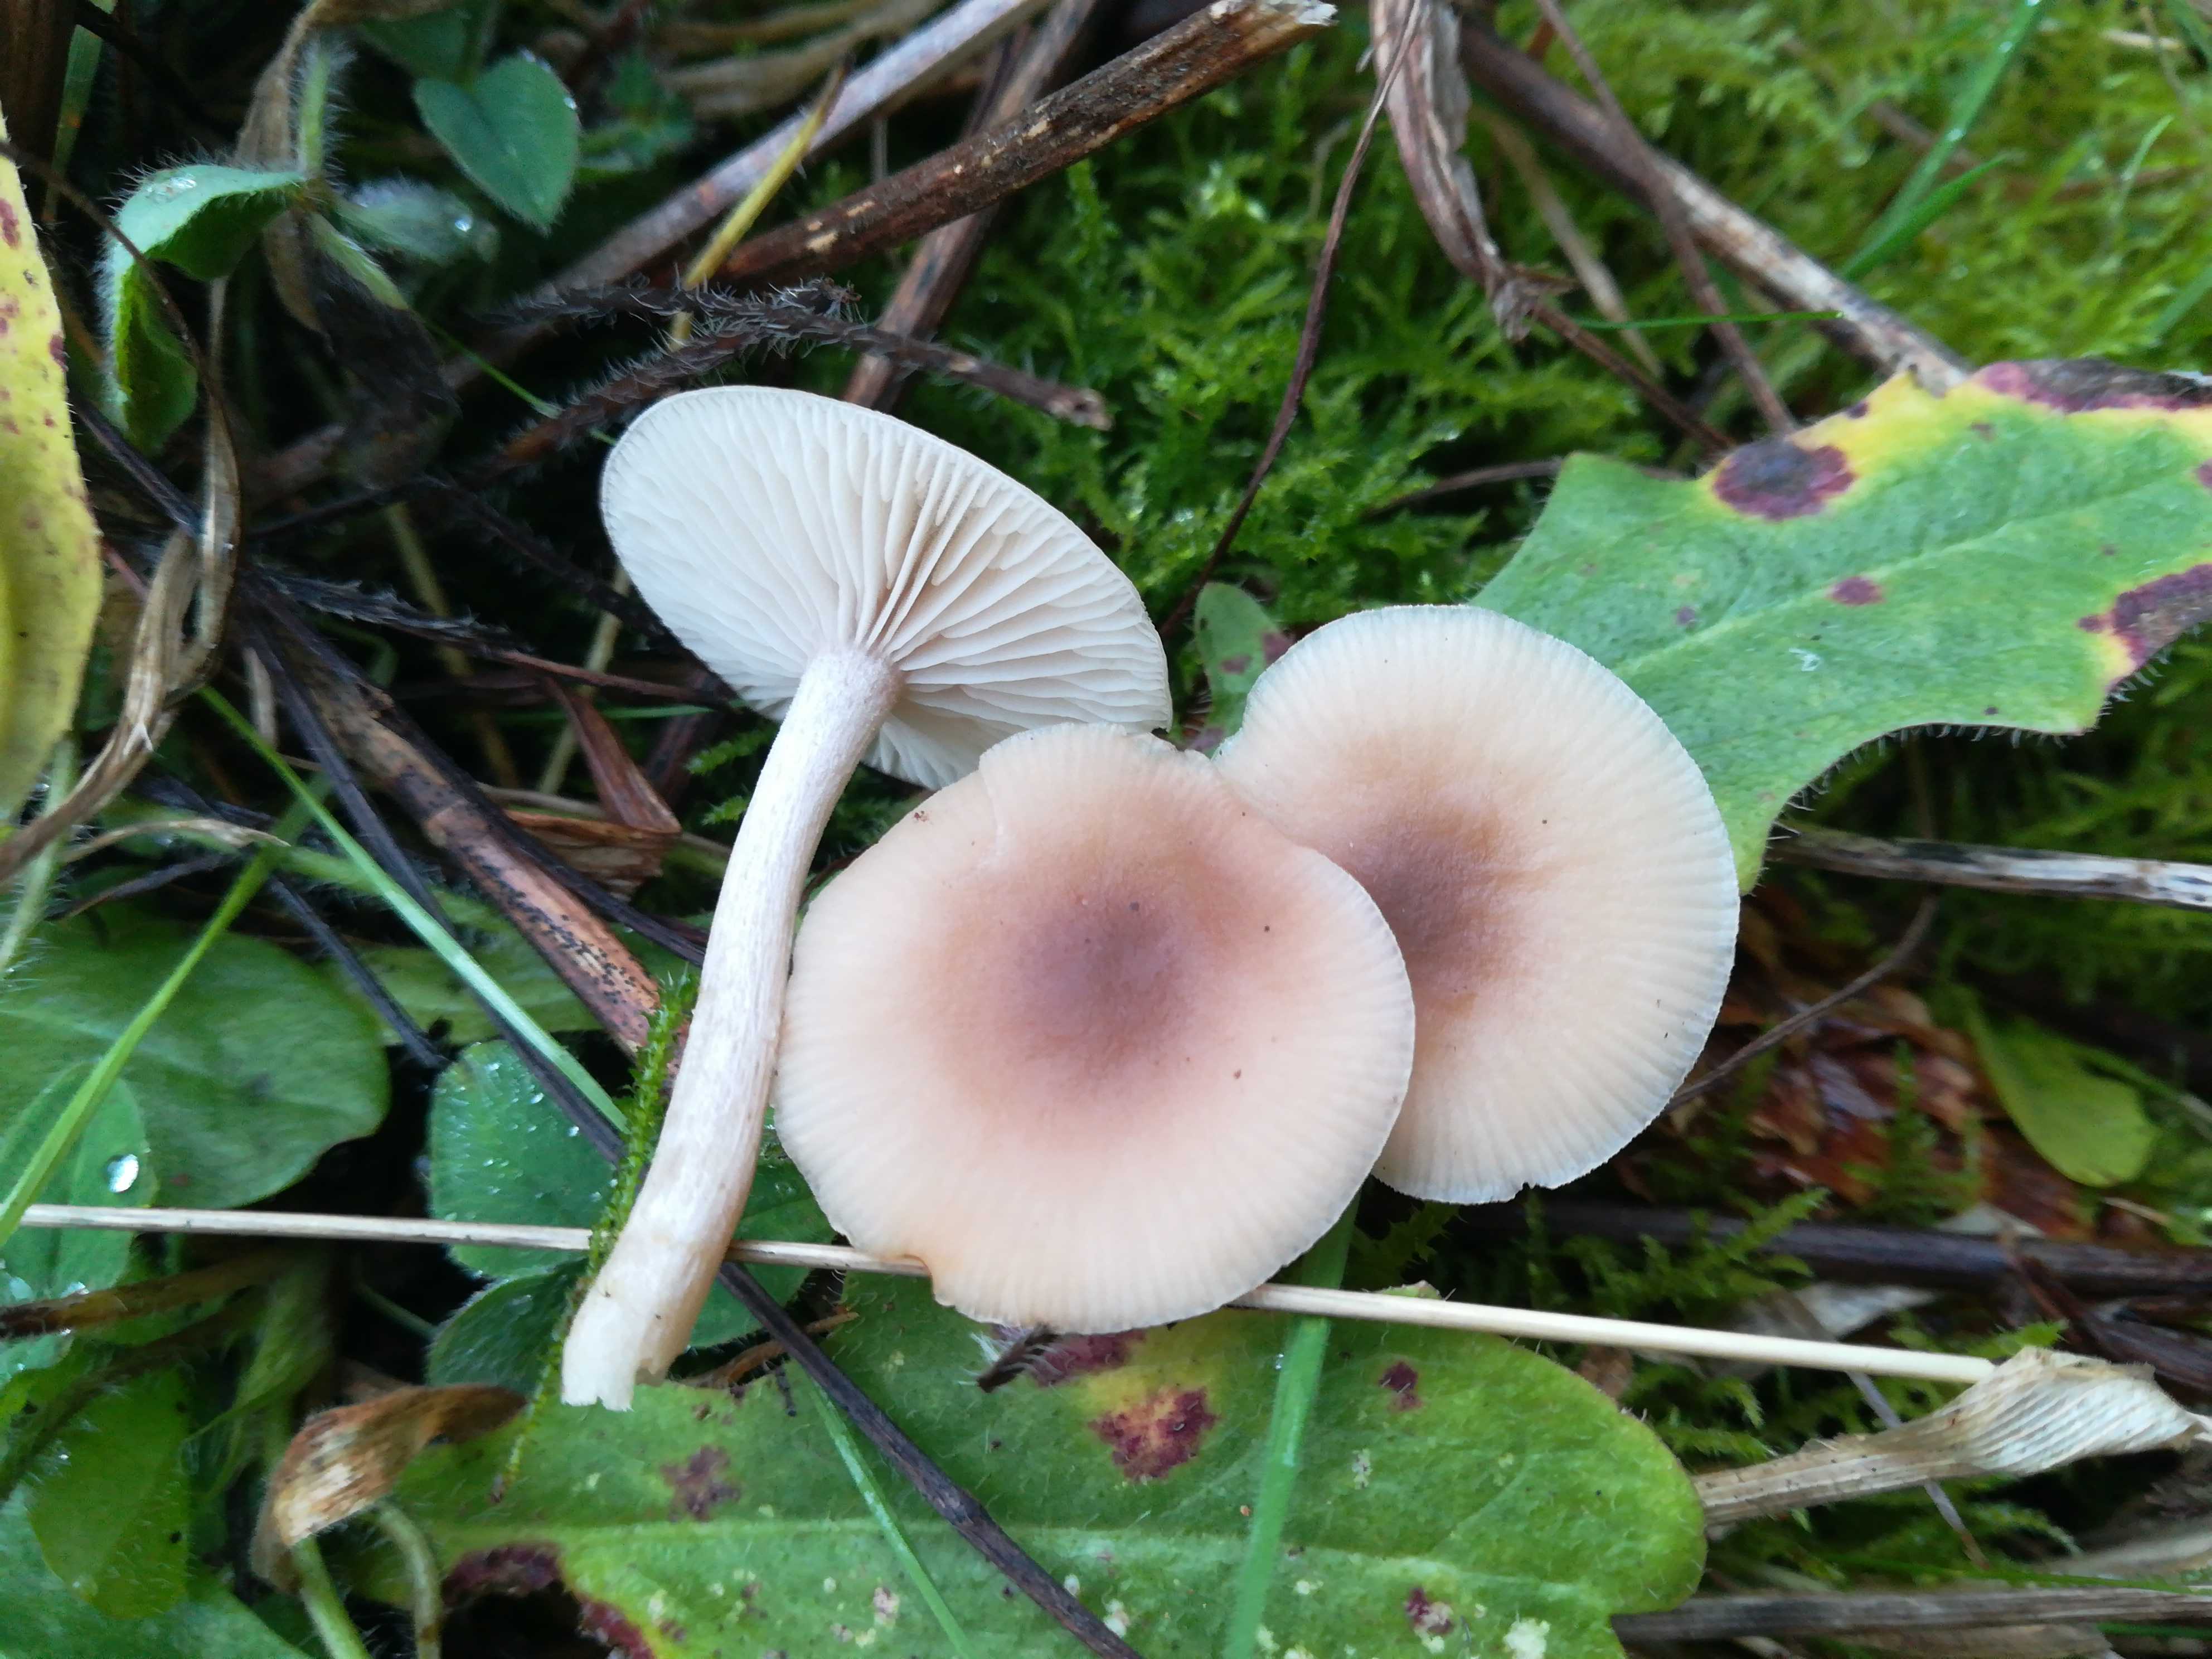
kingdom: Fungi
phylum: Basidiomycota
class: Agaricomycetes
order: Agaricales
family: Tricholomataceae
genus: Clitocybe
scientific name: Clitocybe
